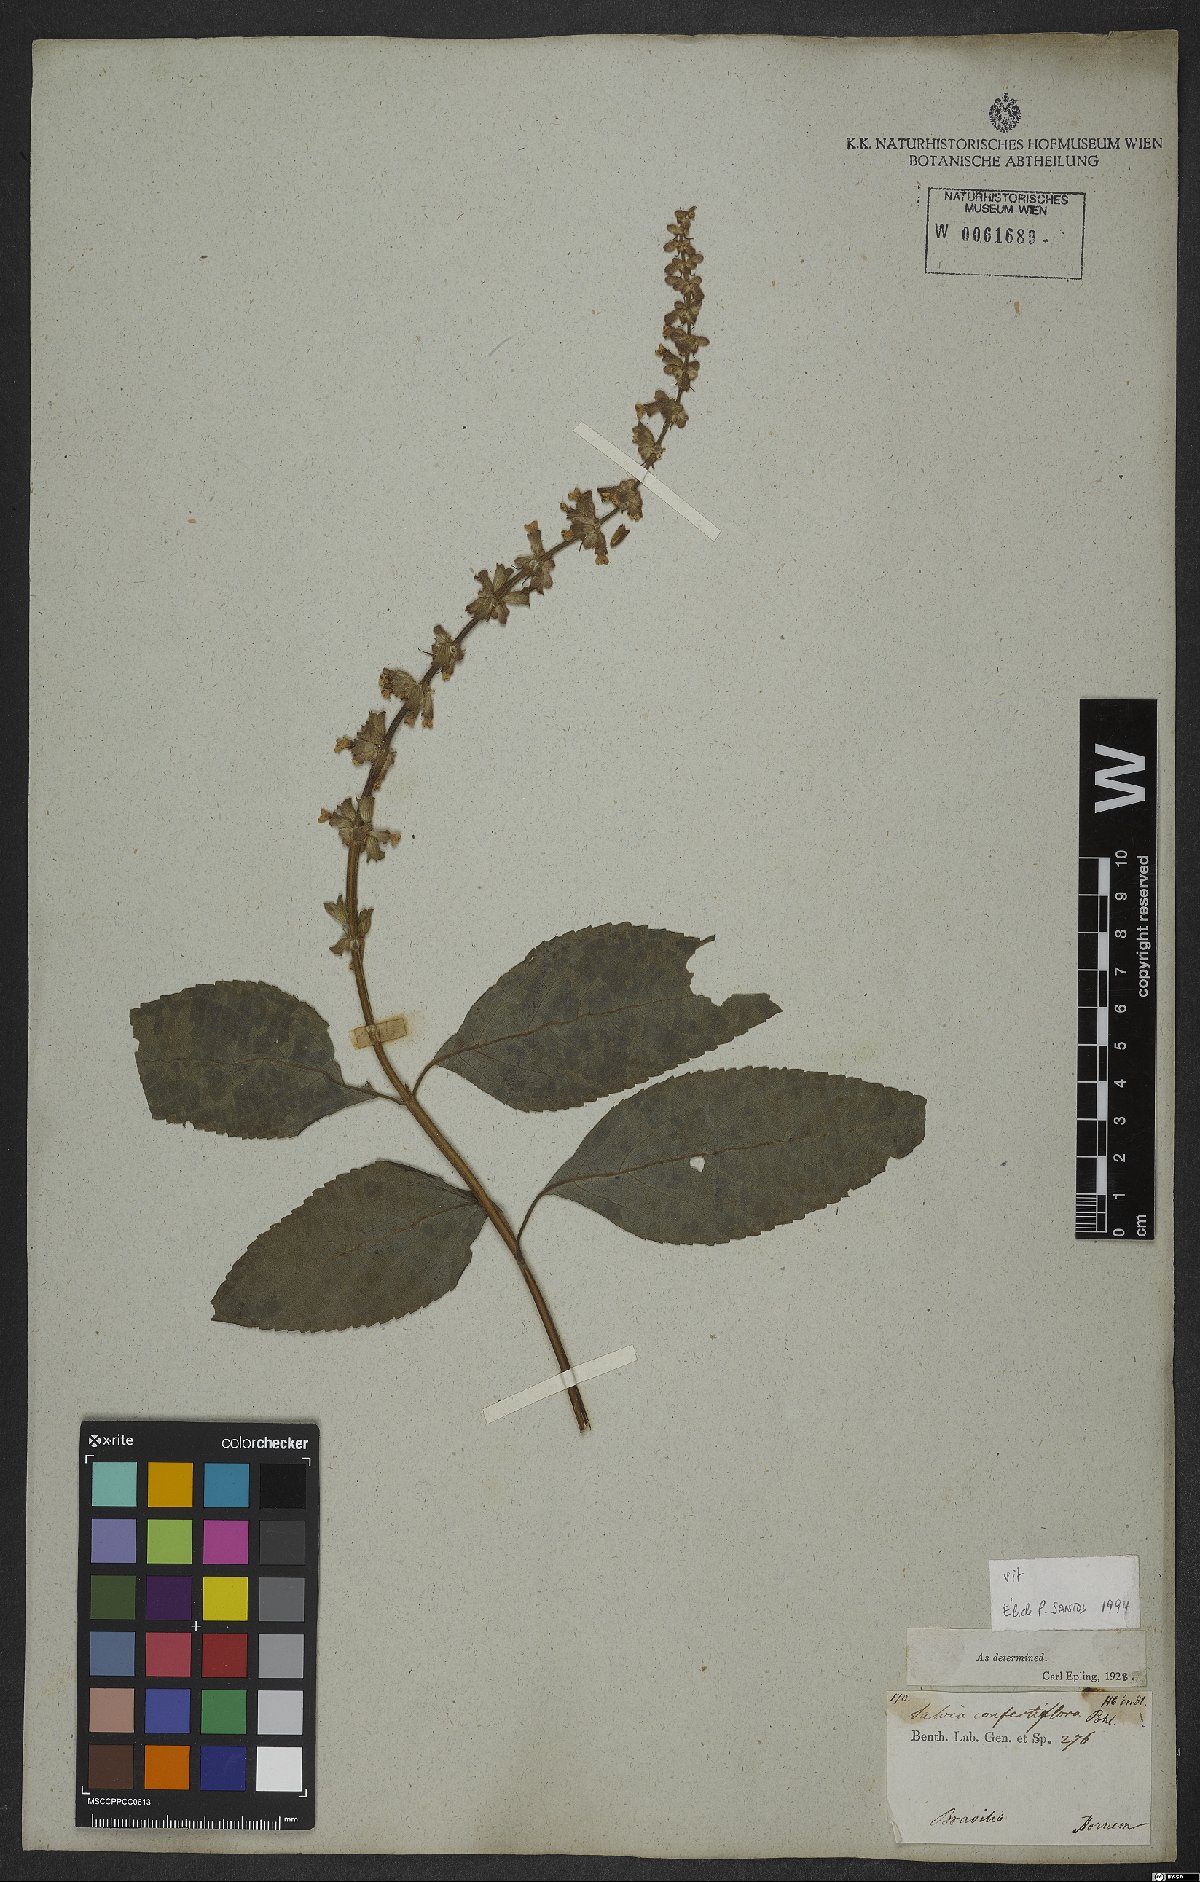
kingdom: Plantae
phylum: Tracheophyta
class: Magnoliopsida
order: Lamiales
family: Lamiaceae
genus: Salvia
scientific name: Salvia confertiflora
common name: Sabra-spike sage
